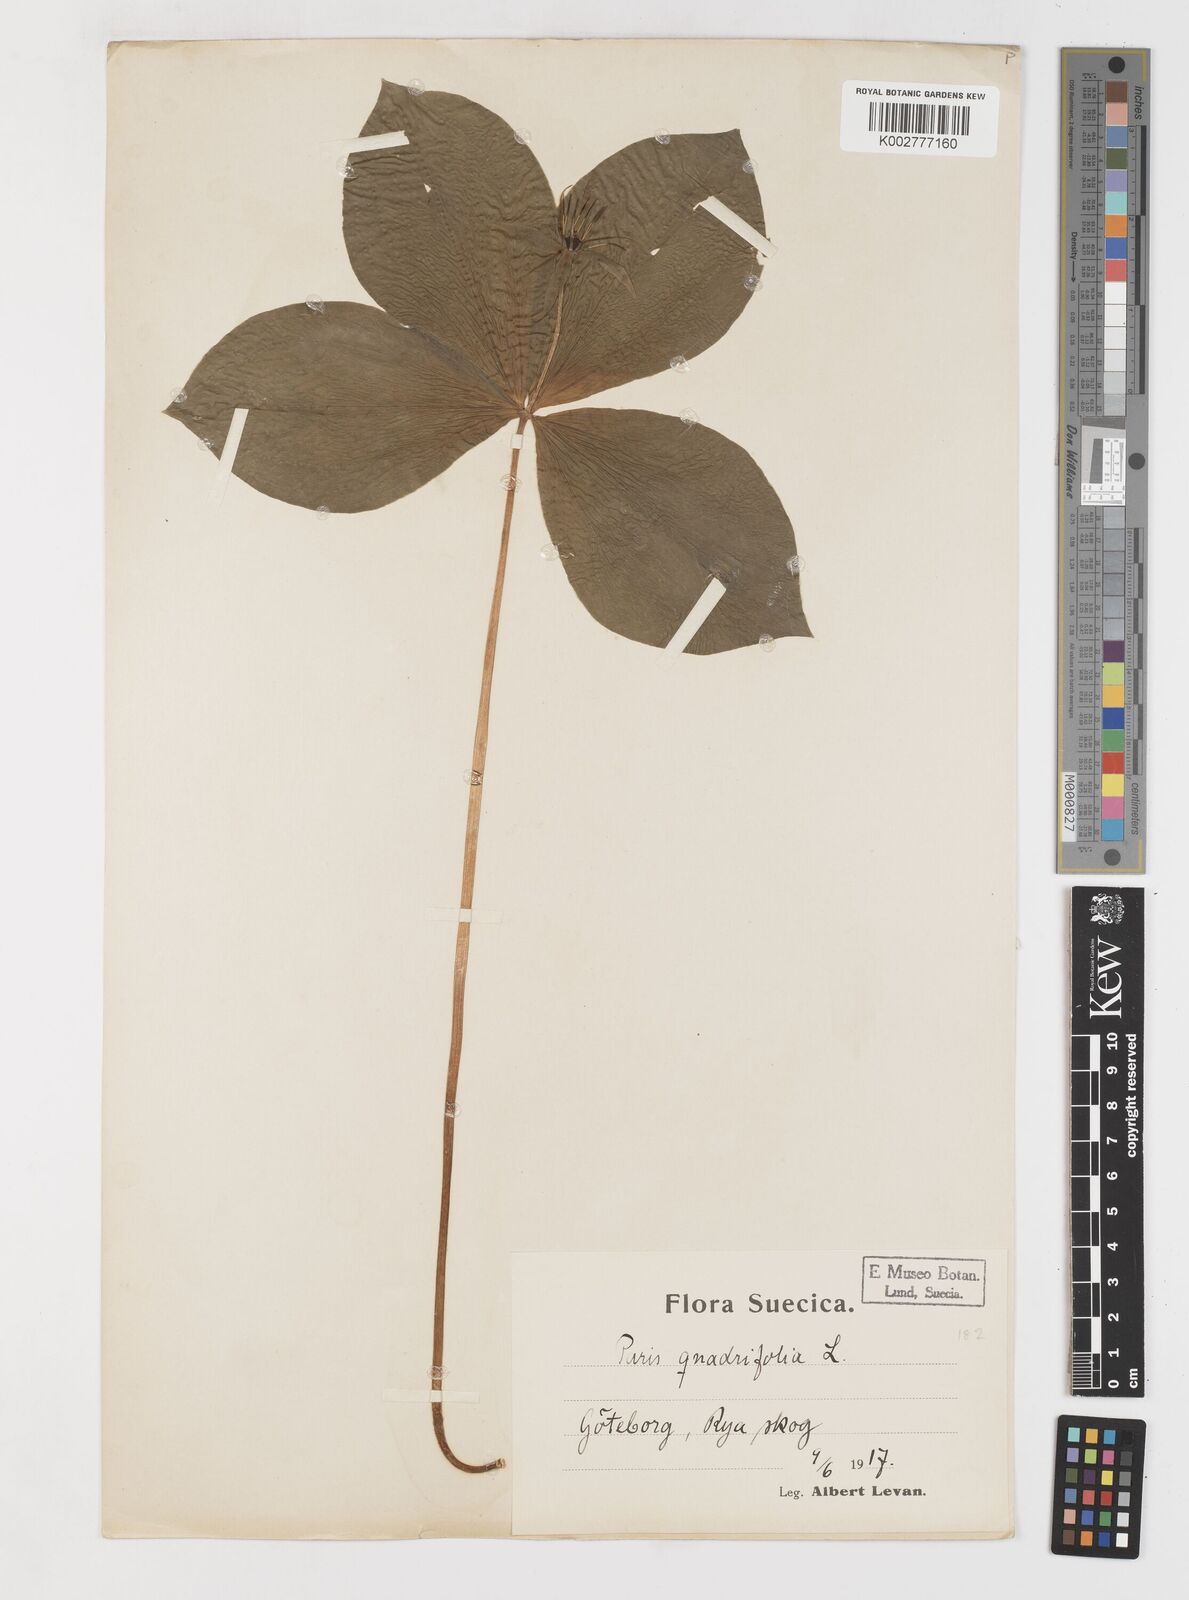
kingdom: Plantae
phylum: Tracheophyta
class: Liliopsida
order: Liliales
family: Melanthiaceae
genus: Paris
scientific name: Paris quadrifolia
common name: Herb-paris
